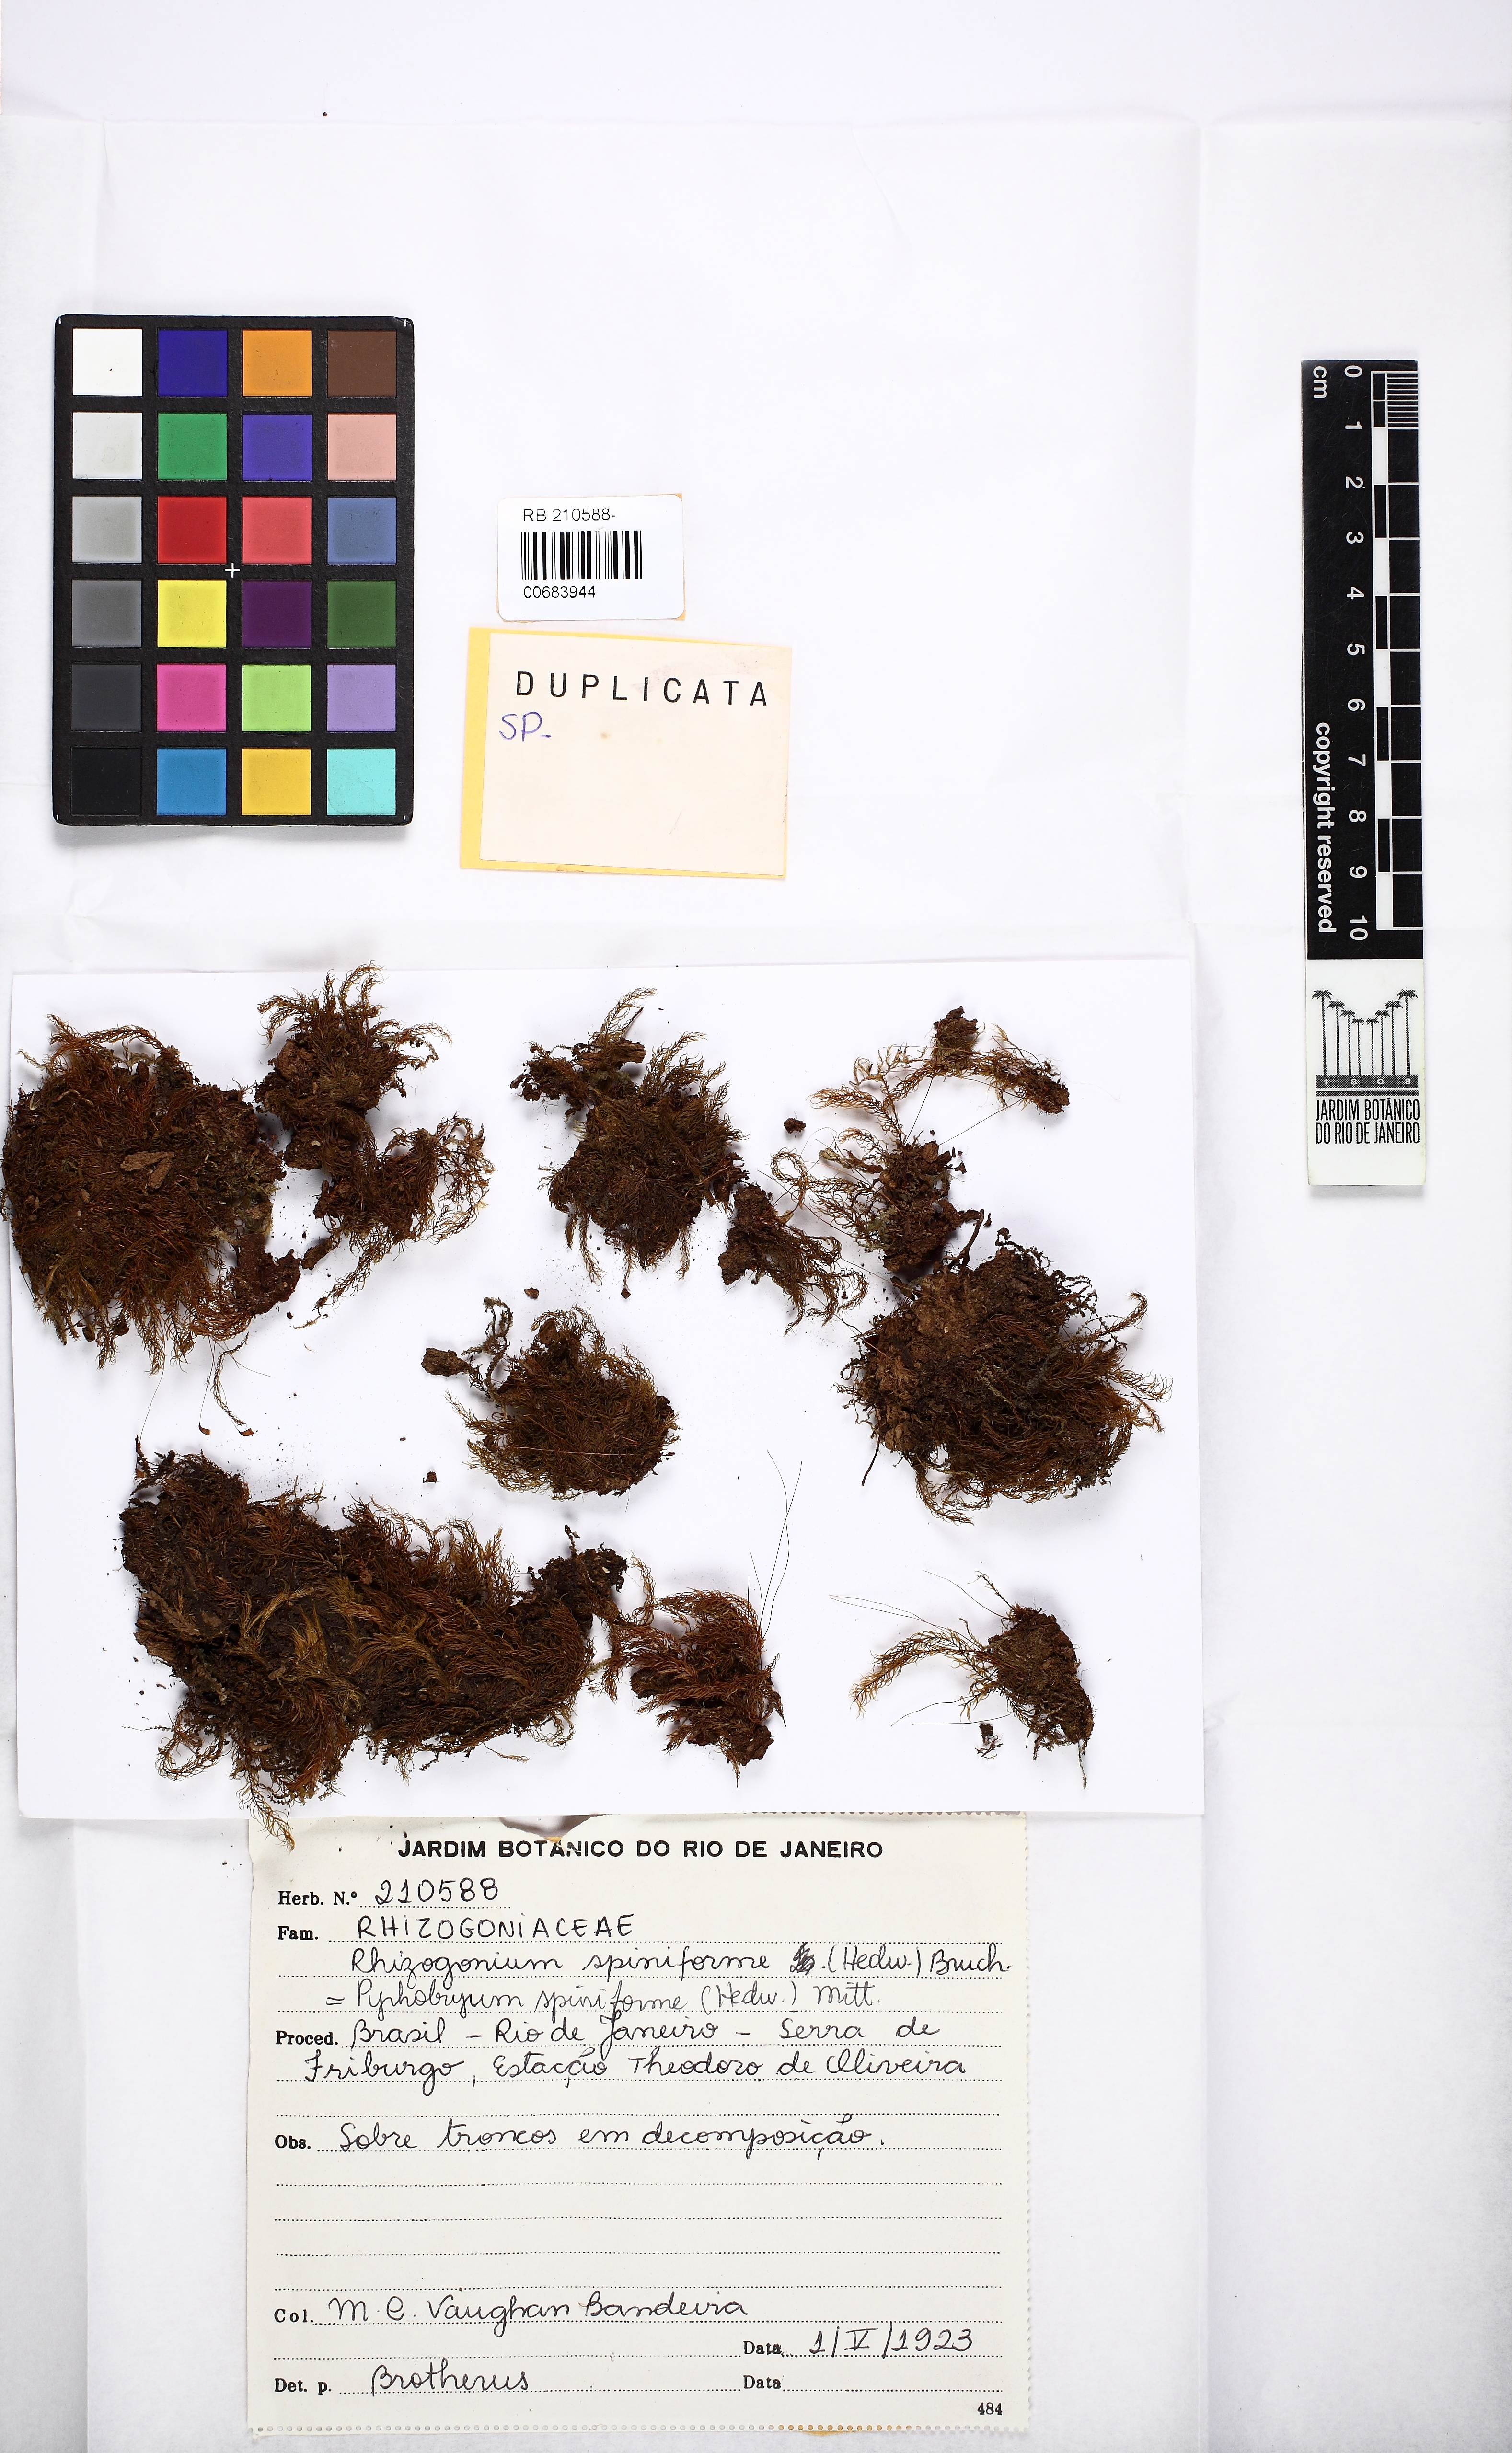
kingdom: Plantae
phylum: Bryophyta
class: Bryopsida
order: Rhizogoniales
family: Calomniaceae
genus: Pyrrhobryum
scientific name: Pyrrhobryum spiniforme
